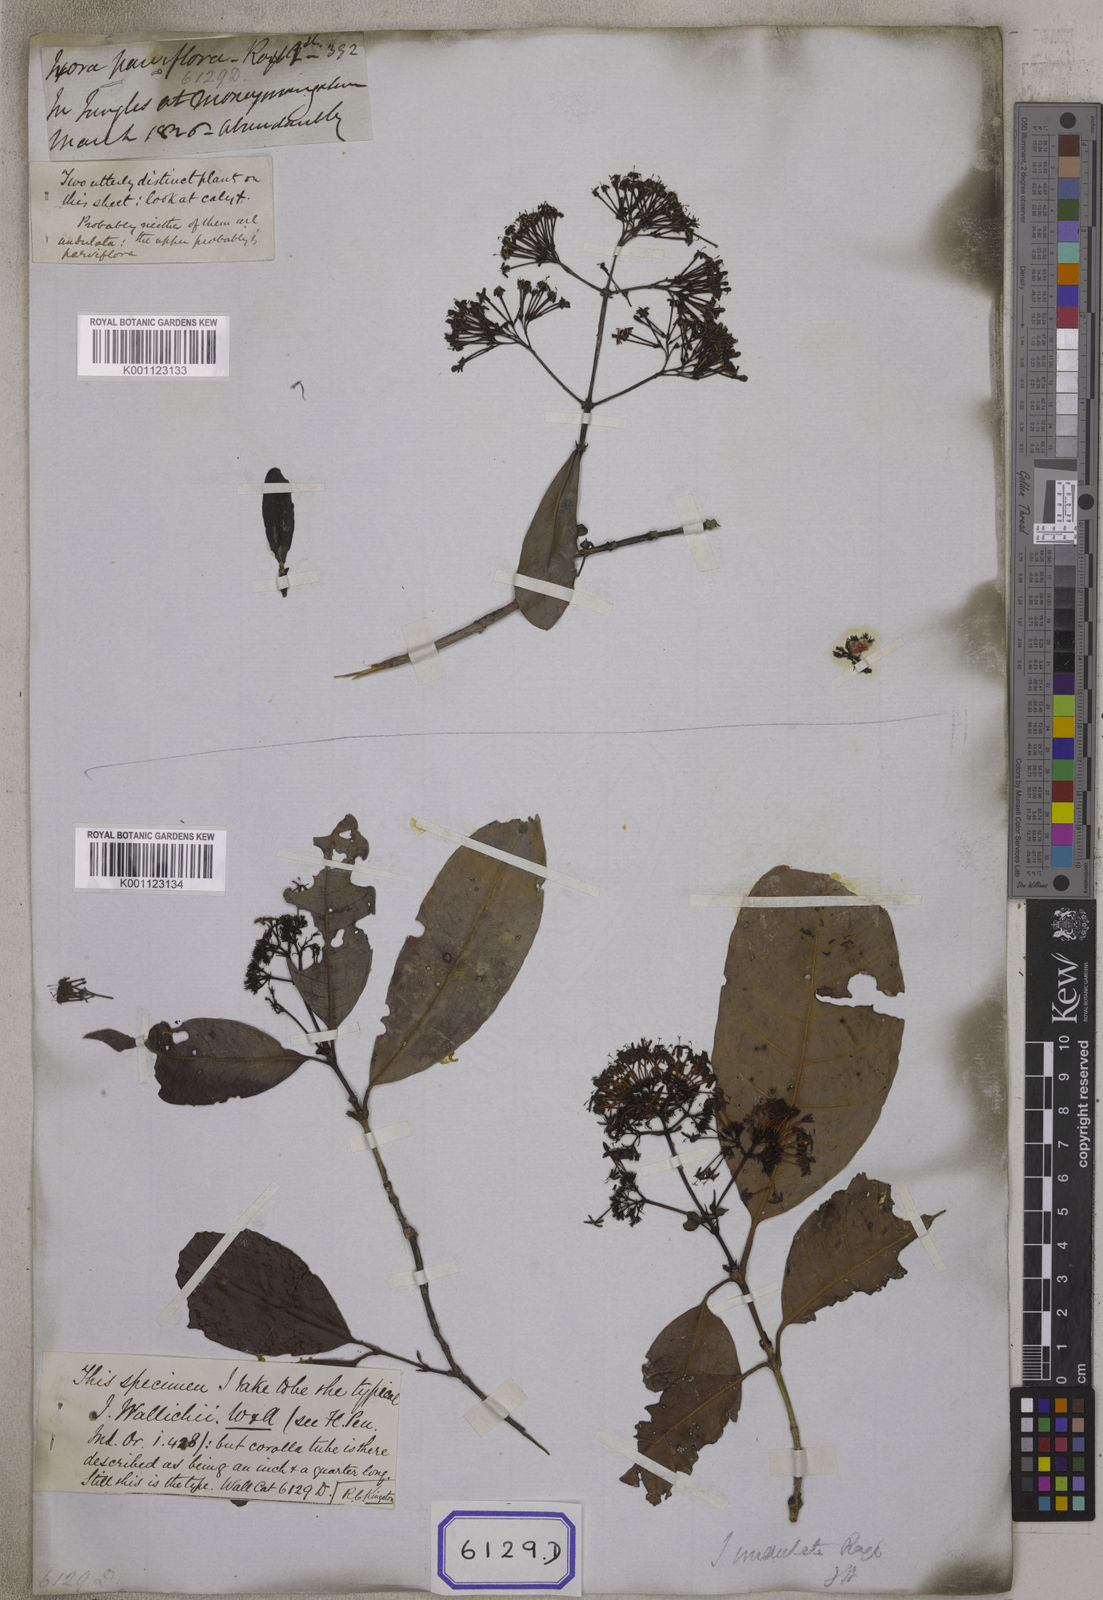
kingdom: Plantae
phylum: Tracheophyta
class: Magnoliopsida
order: Gentianales
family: Rubiaceae
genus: Ixora
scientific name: Ixora undulata
